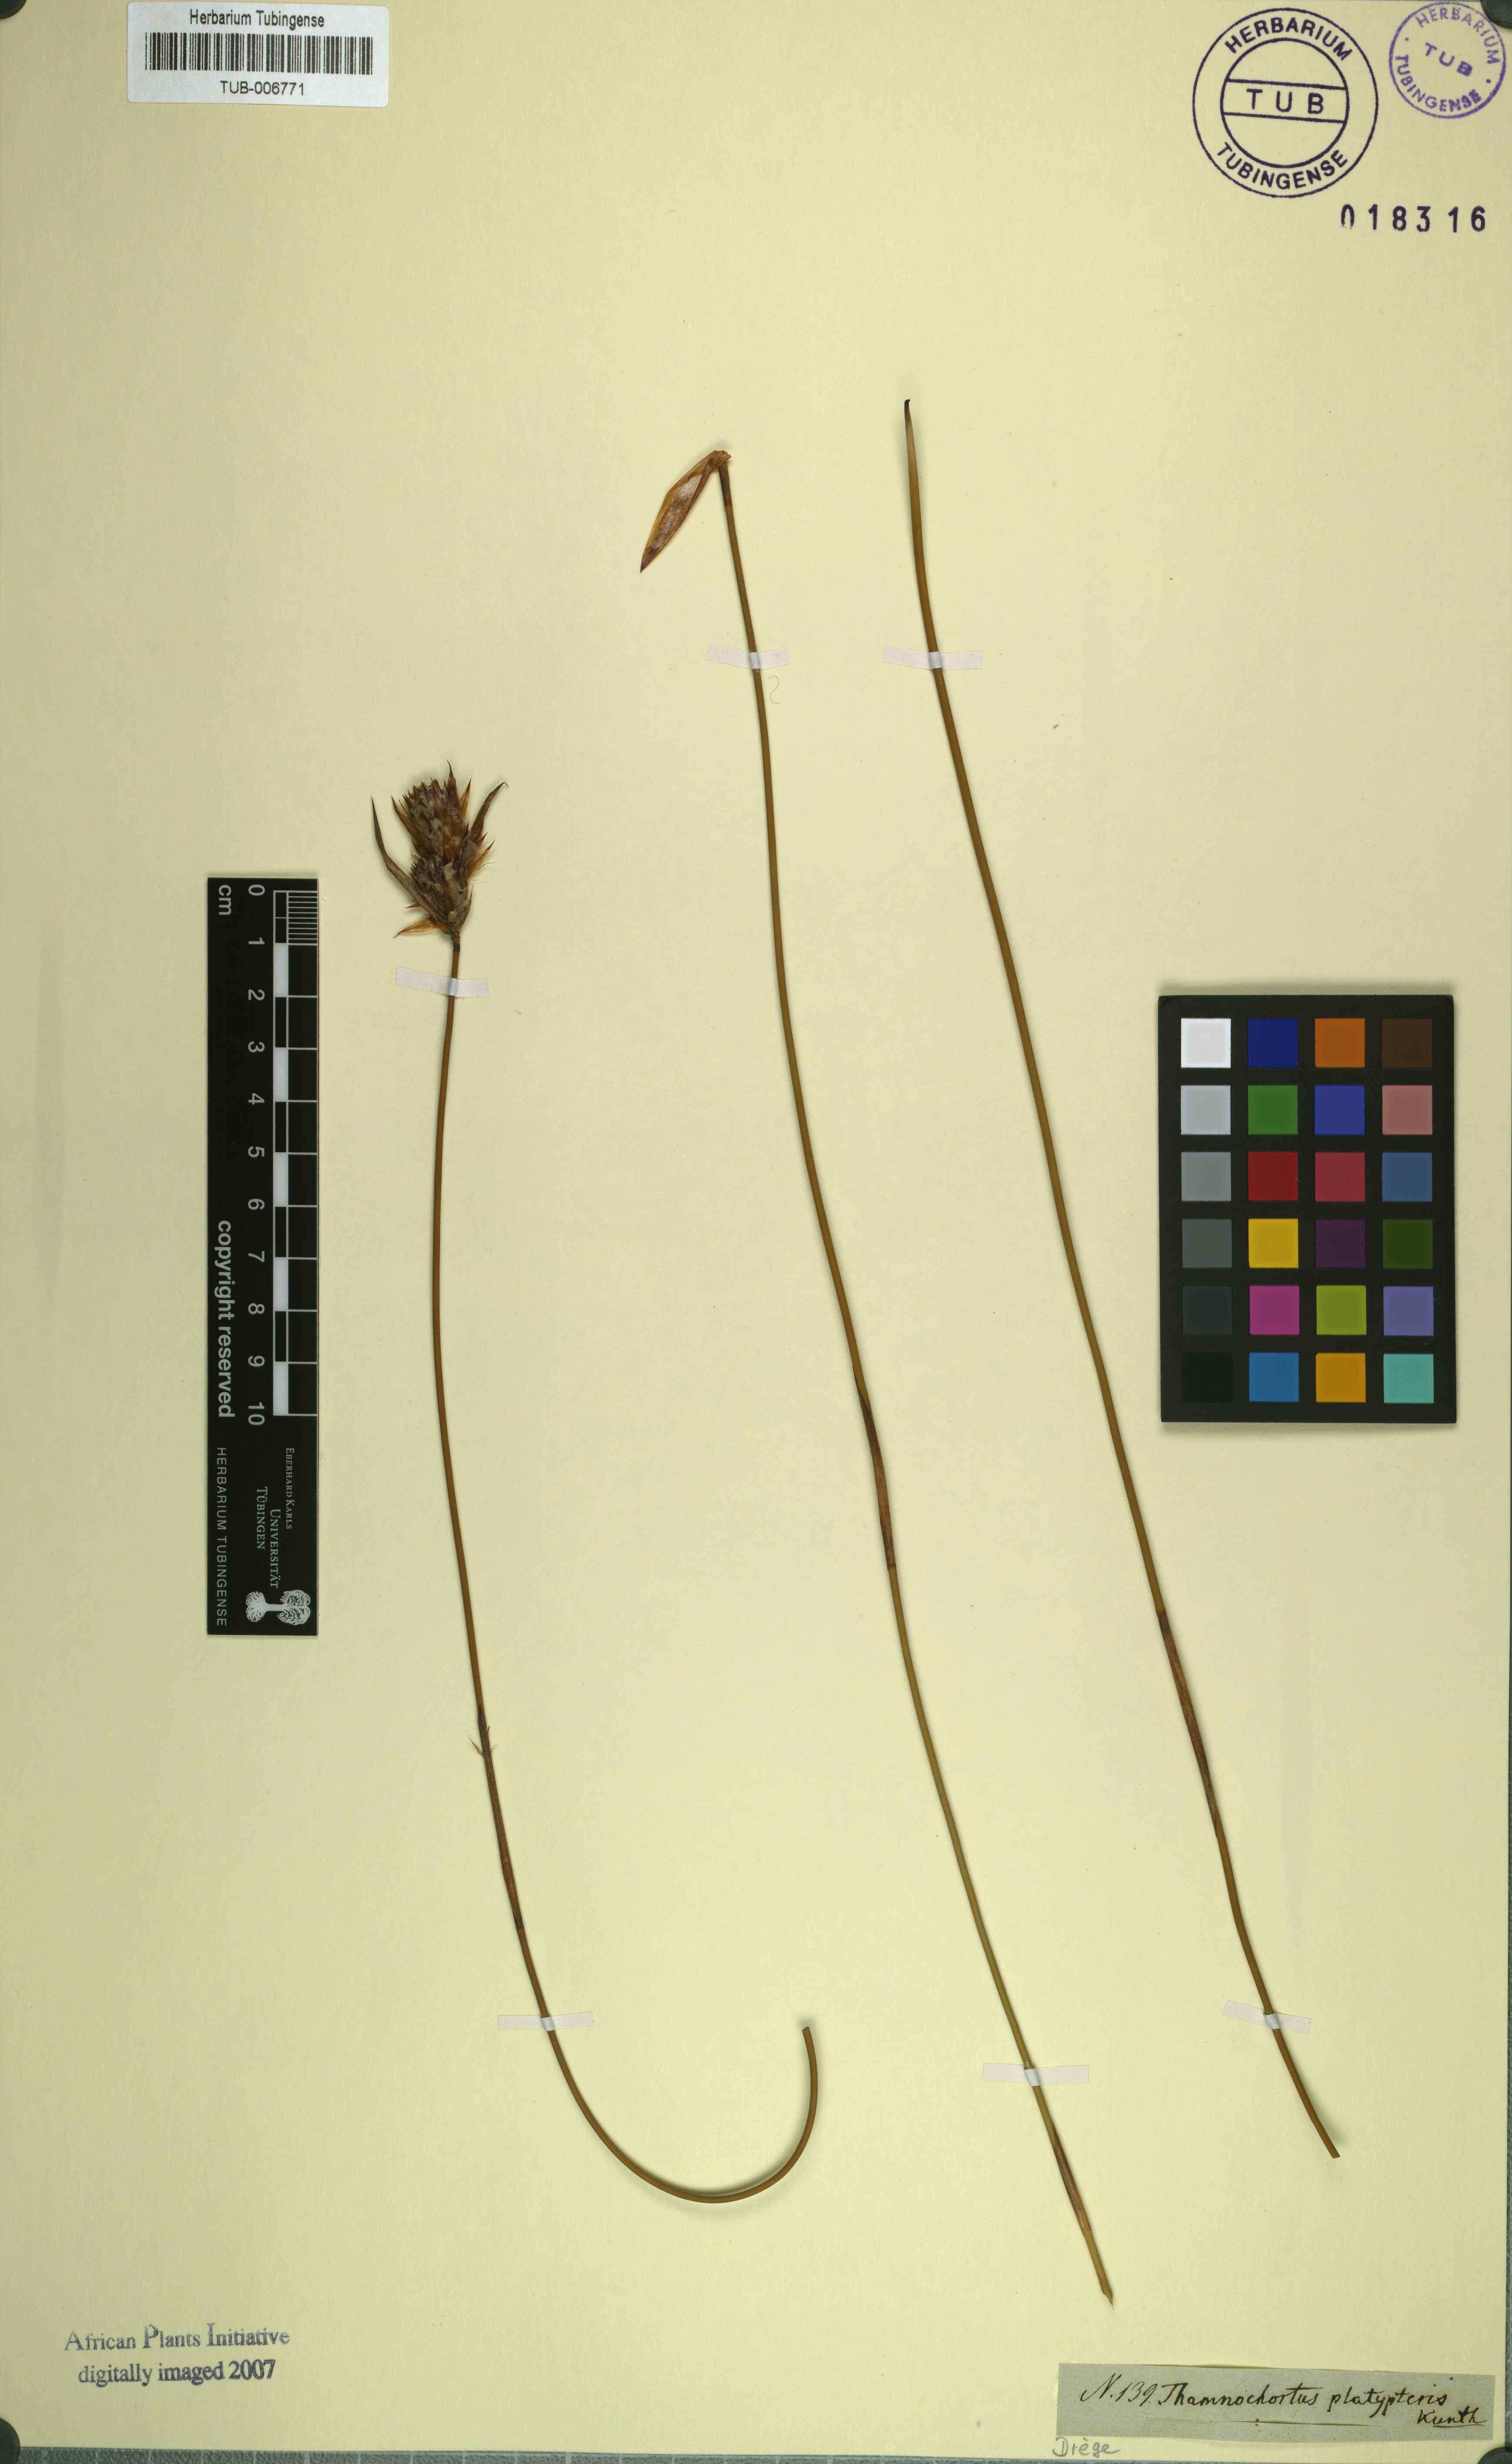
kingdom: Plantae
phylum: Tracheophyta
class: Liliopsida
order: Poales
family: Restionaceae
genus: Thamnochortus
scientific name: Thamnochortus platypteris
